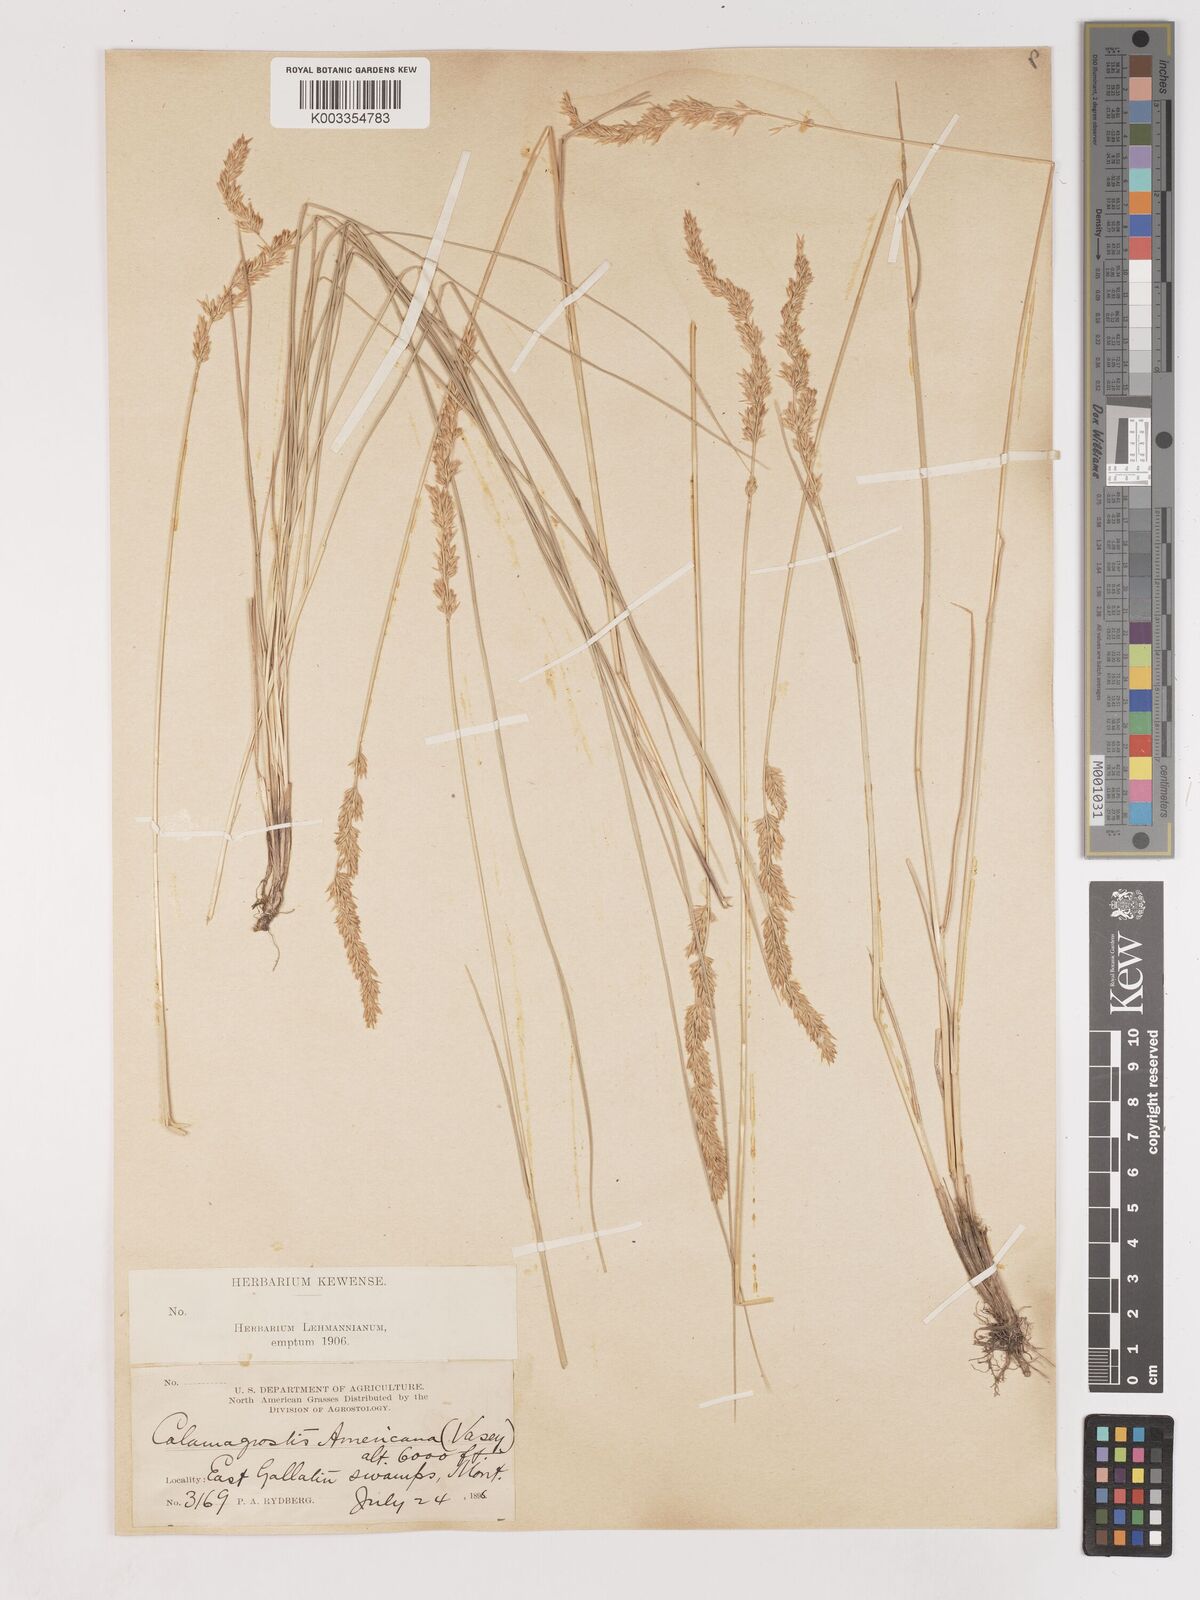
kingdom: Plantae
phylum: Tracheophyta
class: Liliopsida
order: Poales
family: Poaceae
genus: Cinnagrostis
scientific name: Cinnagrostis recta
